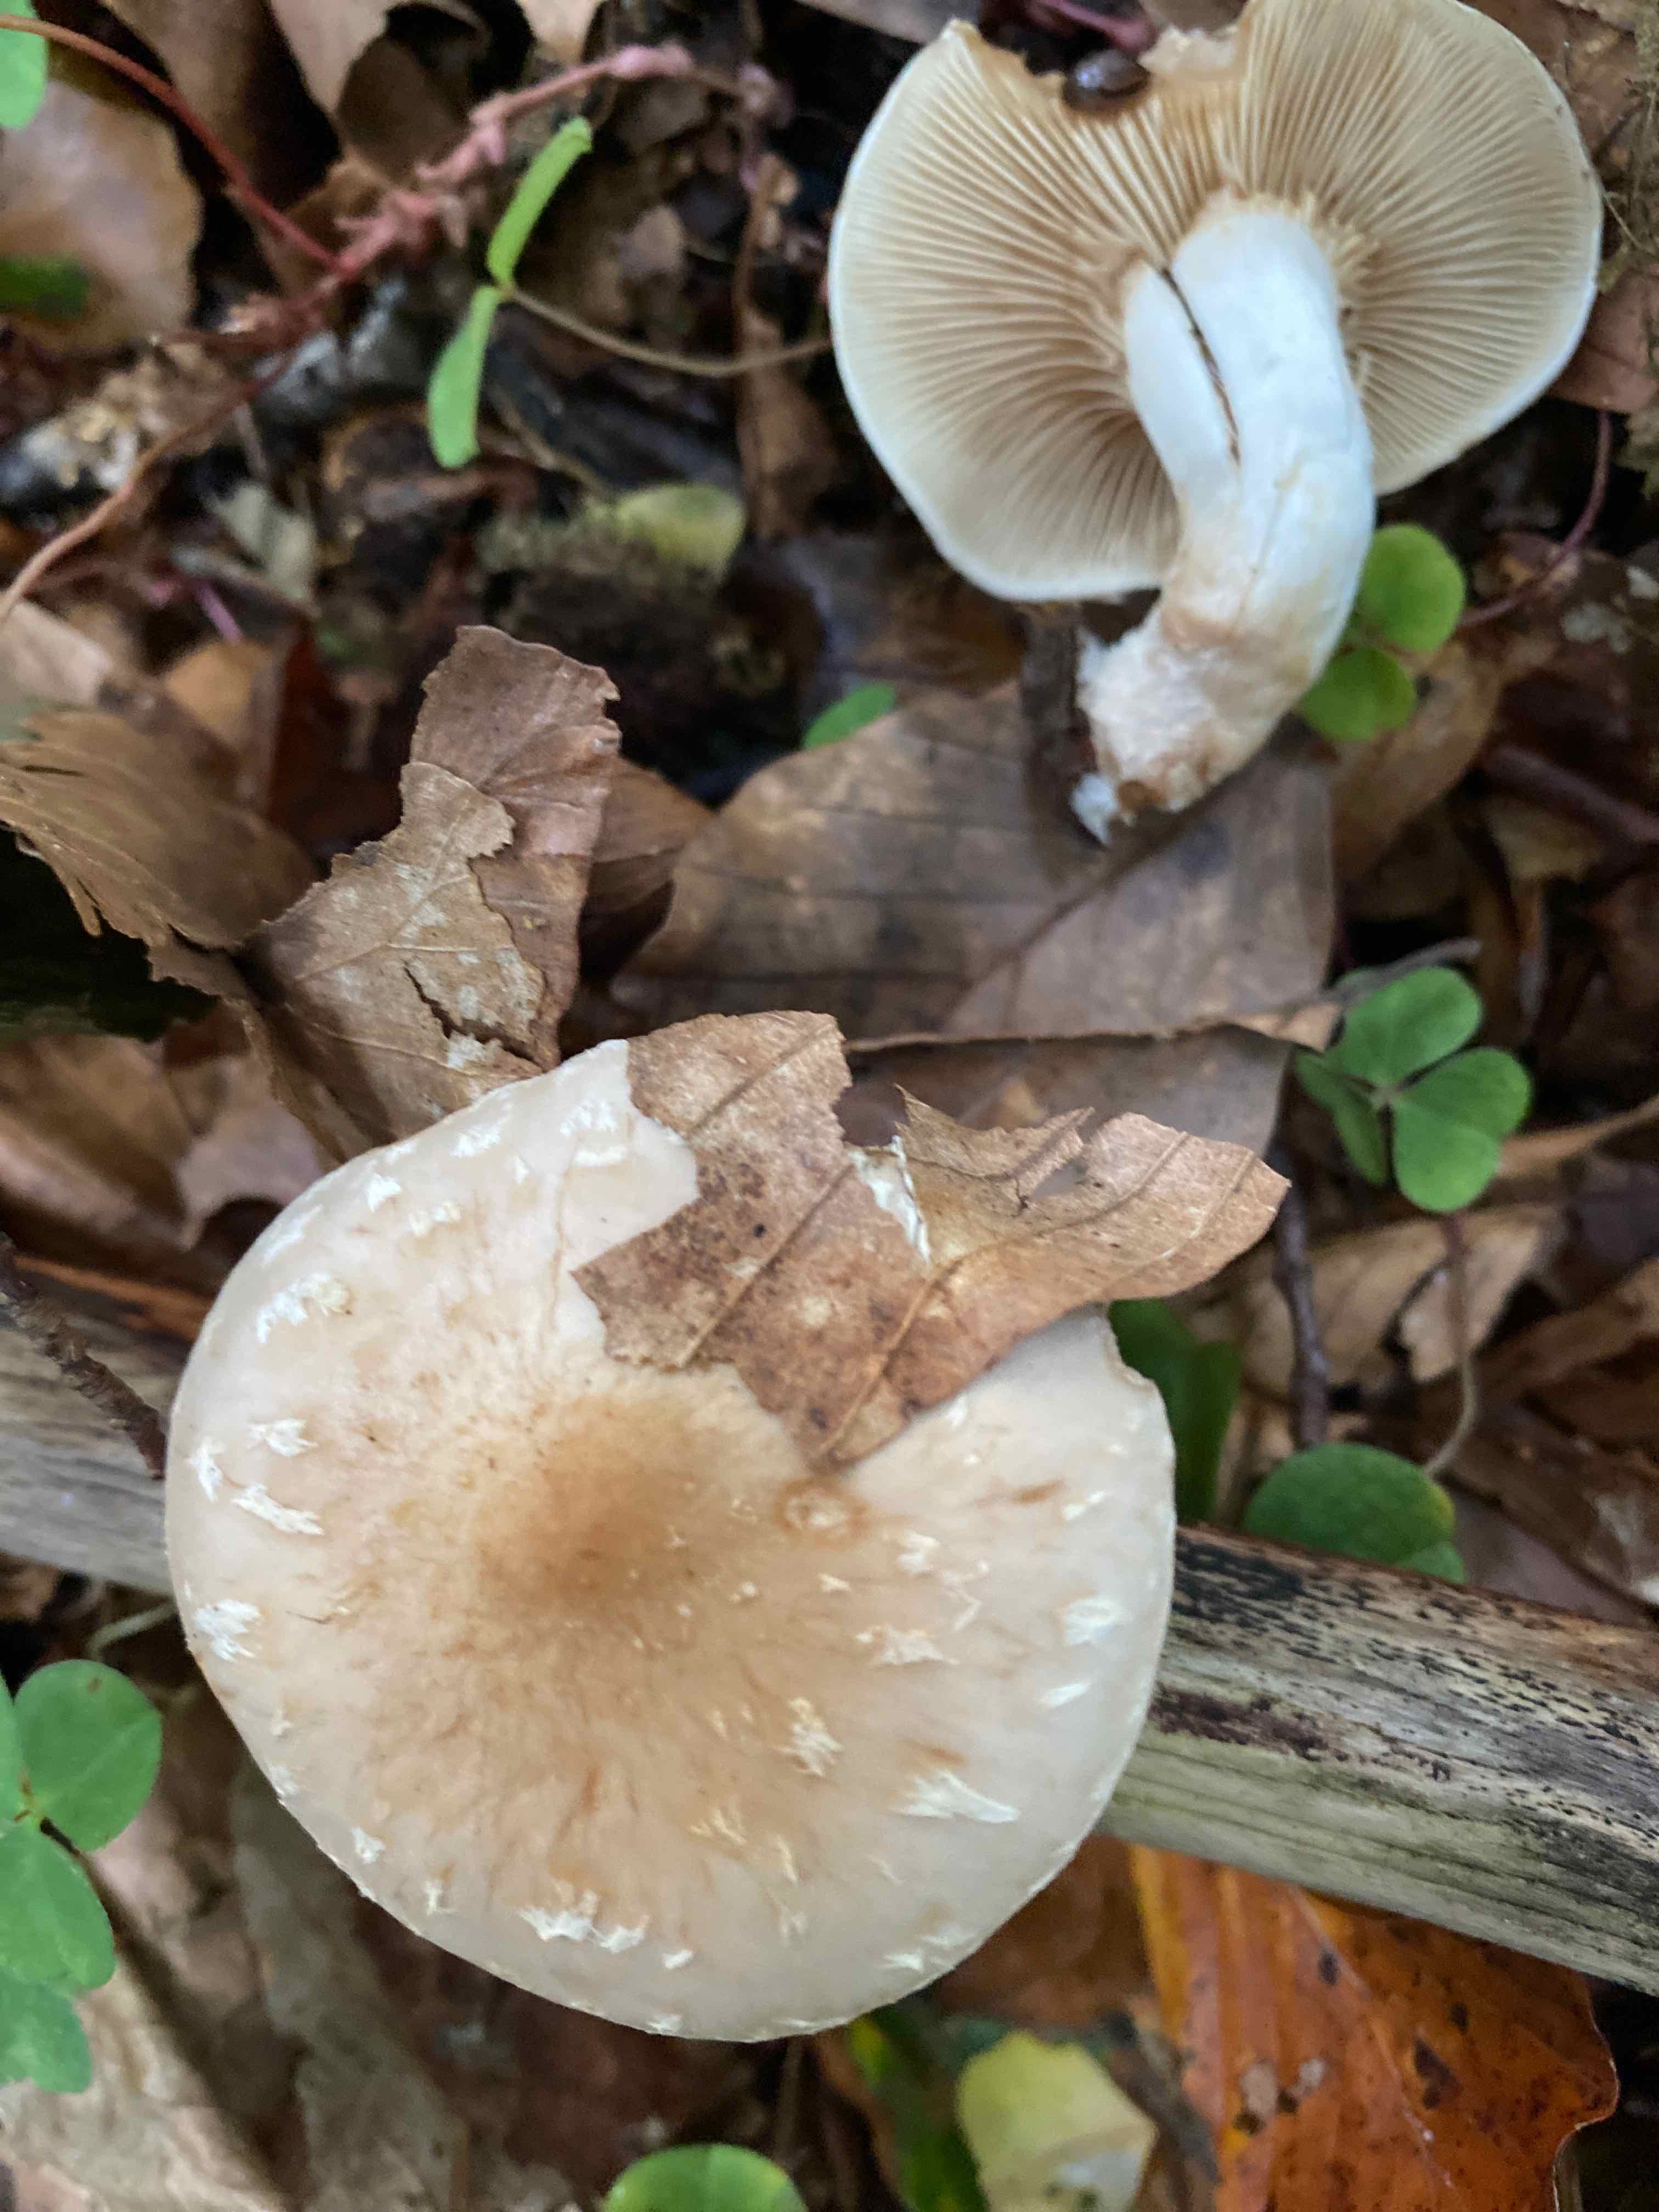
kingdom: Fungi
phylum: Basidiomycota
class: Agaricomycetes
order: Agaricales
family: Strophariaceae
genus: Pholiota
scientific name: Pholiota lenta
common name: løv-skælhat
